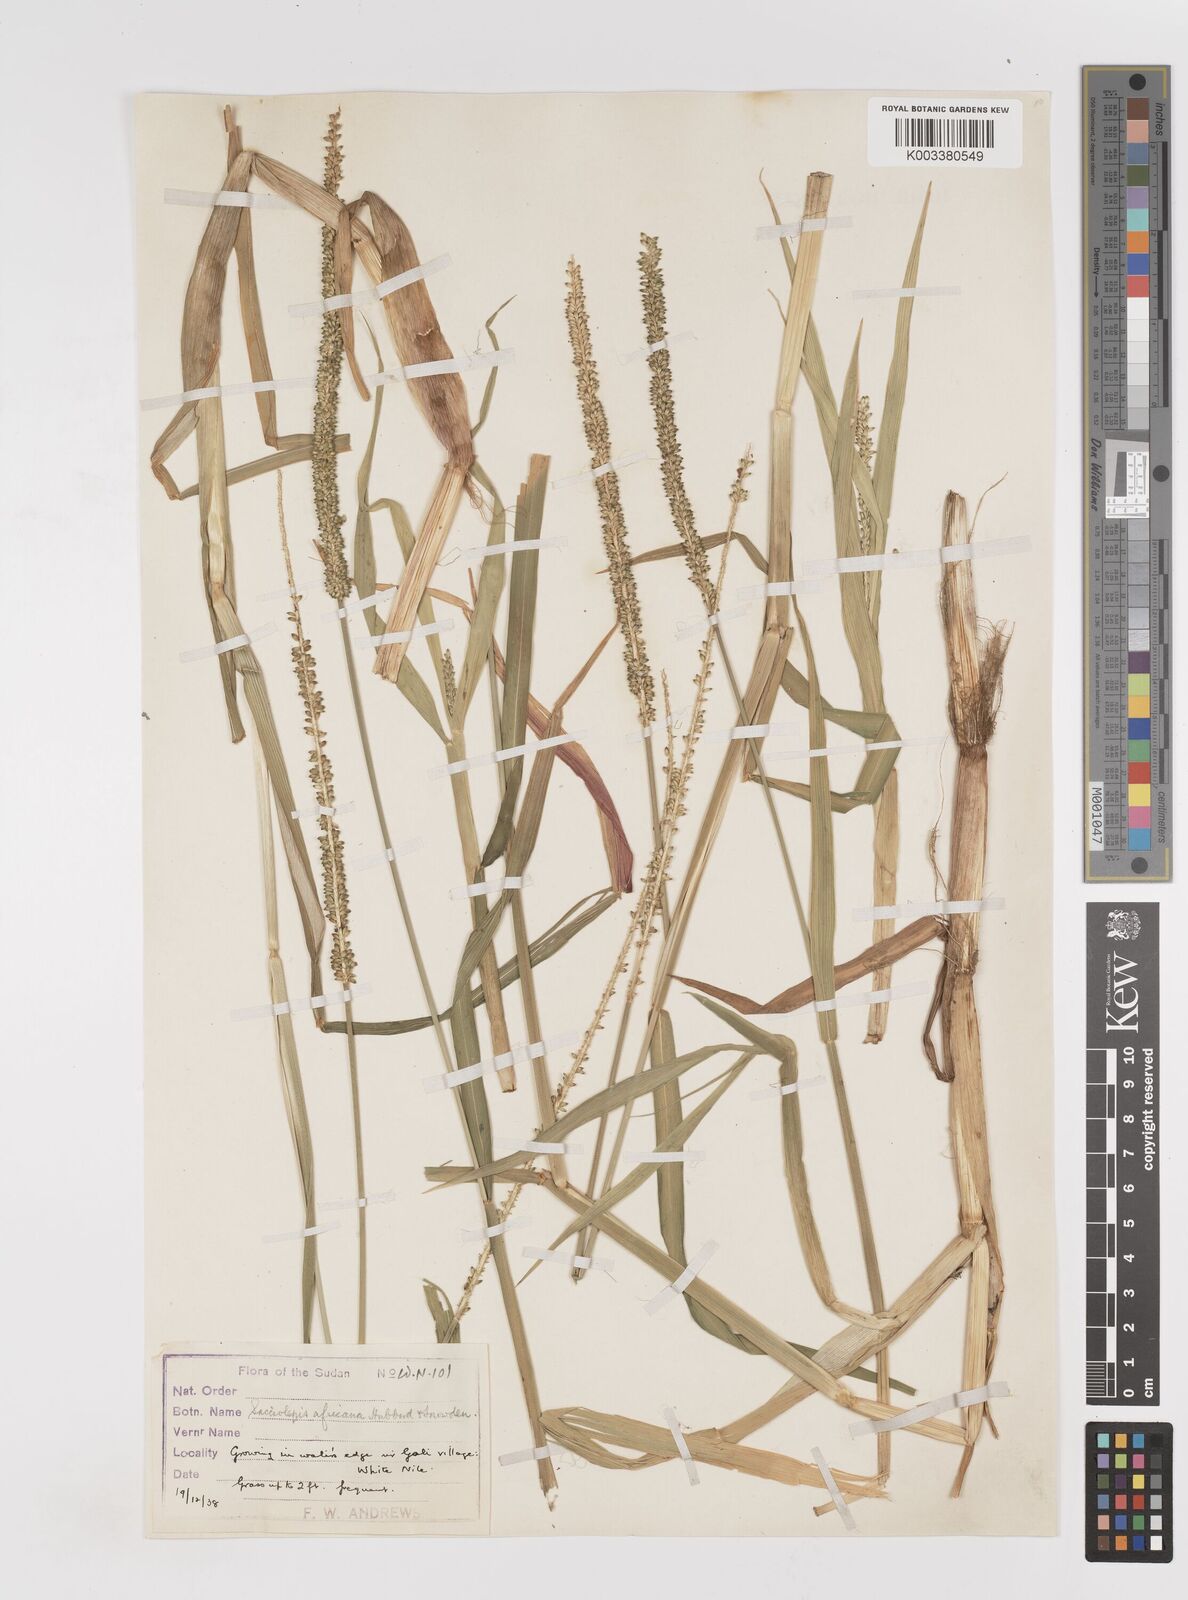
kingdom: Plantae
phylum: Tracheophyta
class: Liliopsida
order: Poales
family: Poaceae
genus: Sacciolepis
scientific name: Sacciolepis africana
